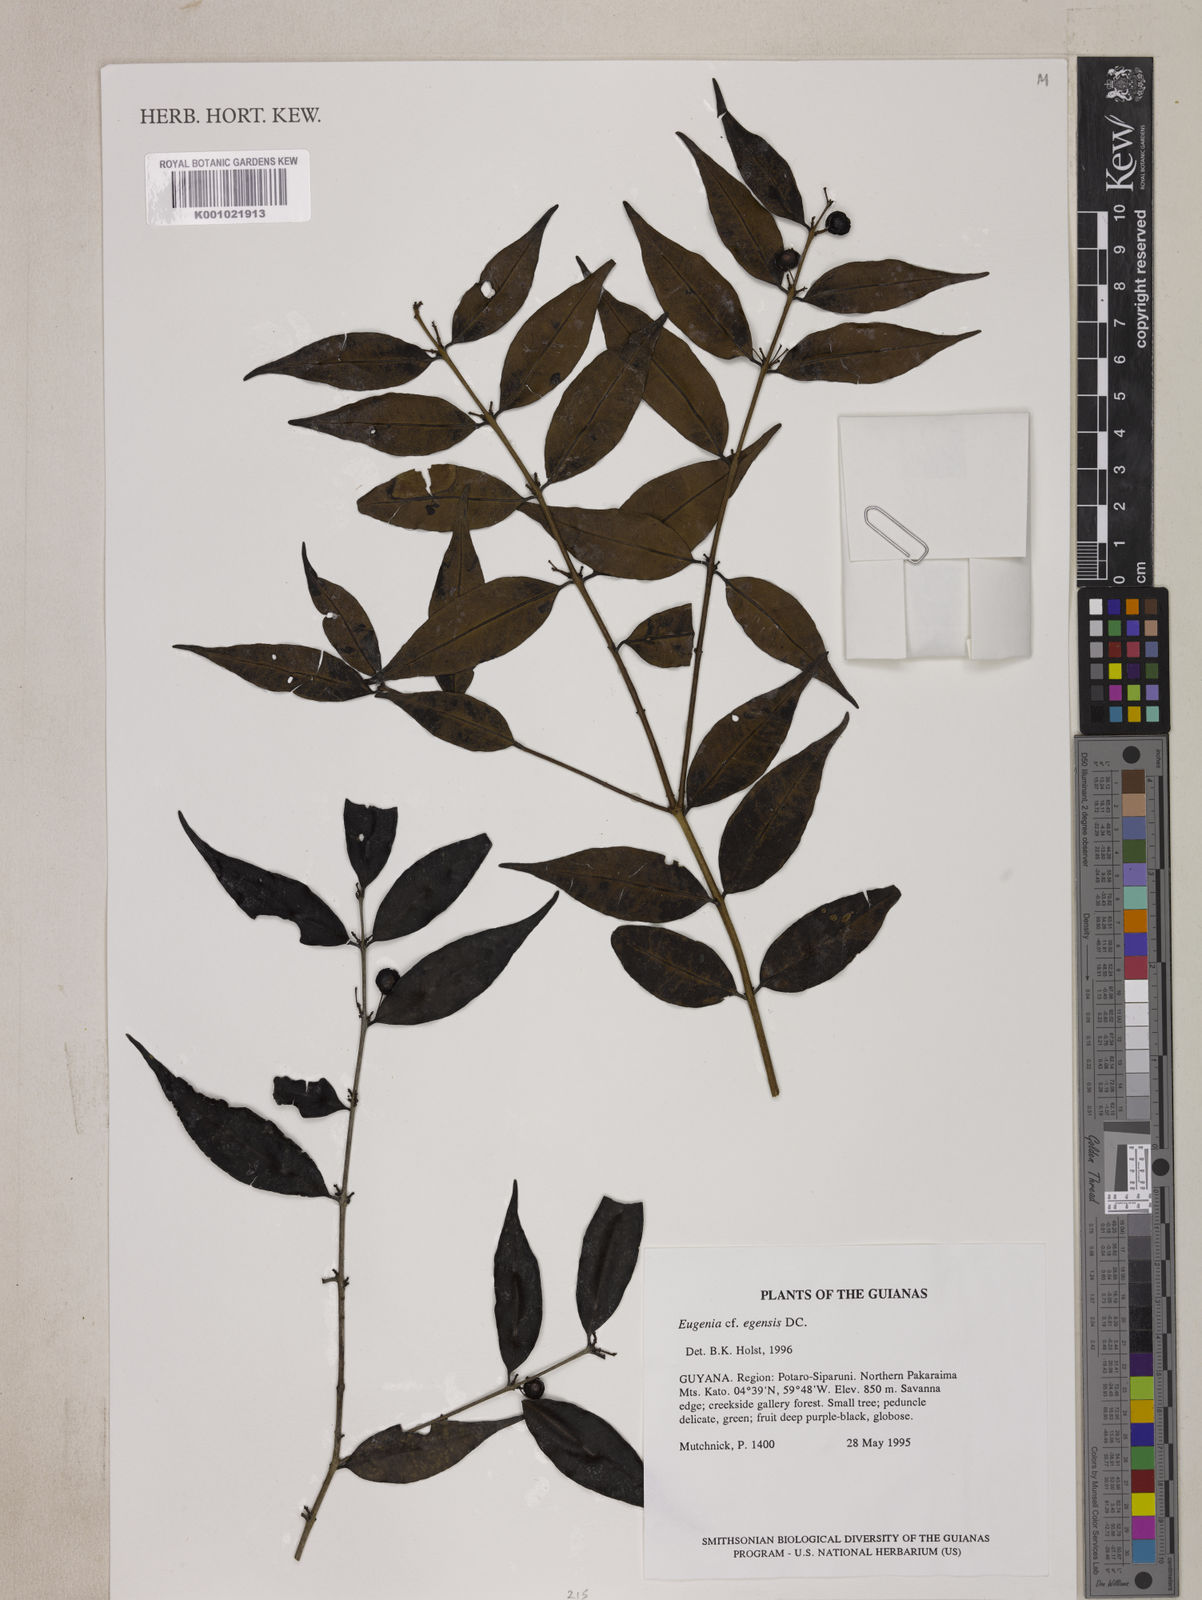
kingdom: Plantae
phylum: Tracheophyta
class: Magnoliopsida
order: Myrtales
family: Myrtaceae
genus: Eugenia
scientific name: Eugenia egensis
